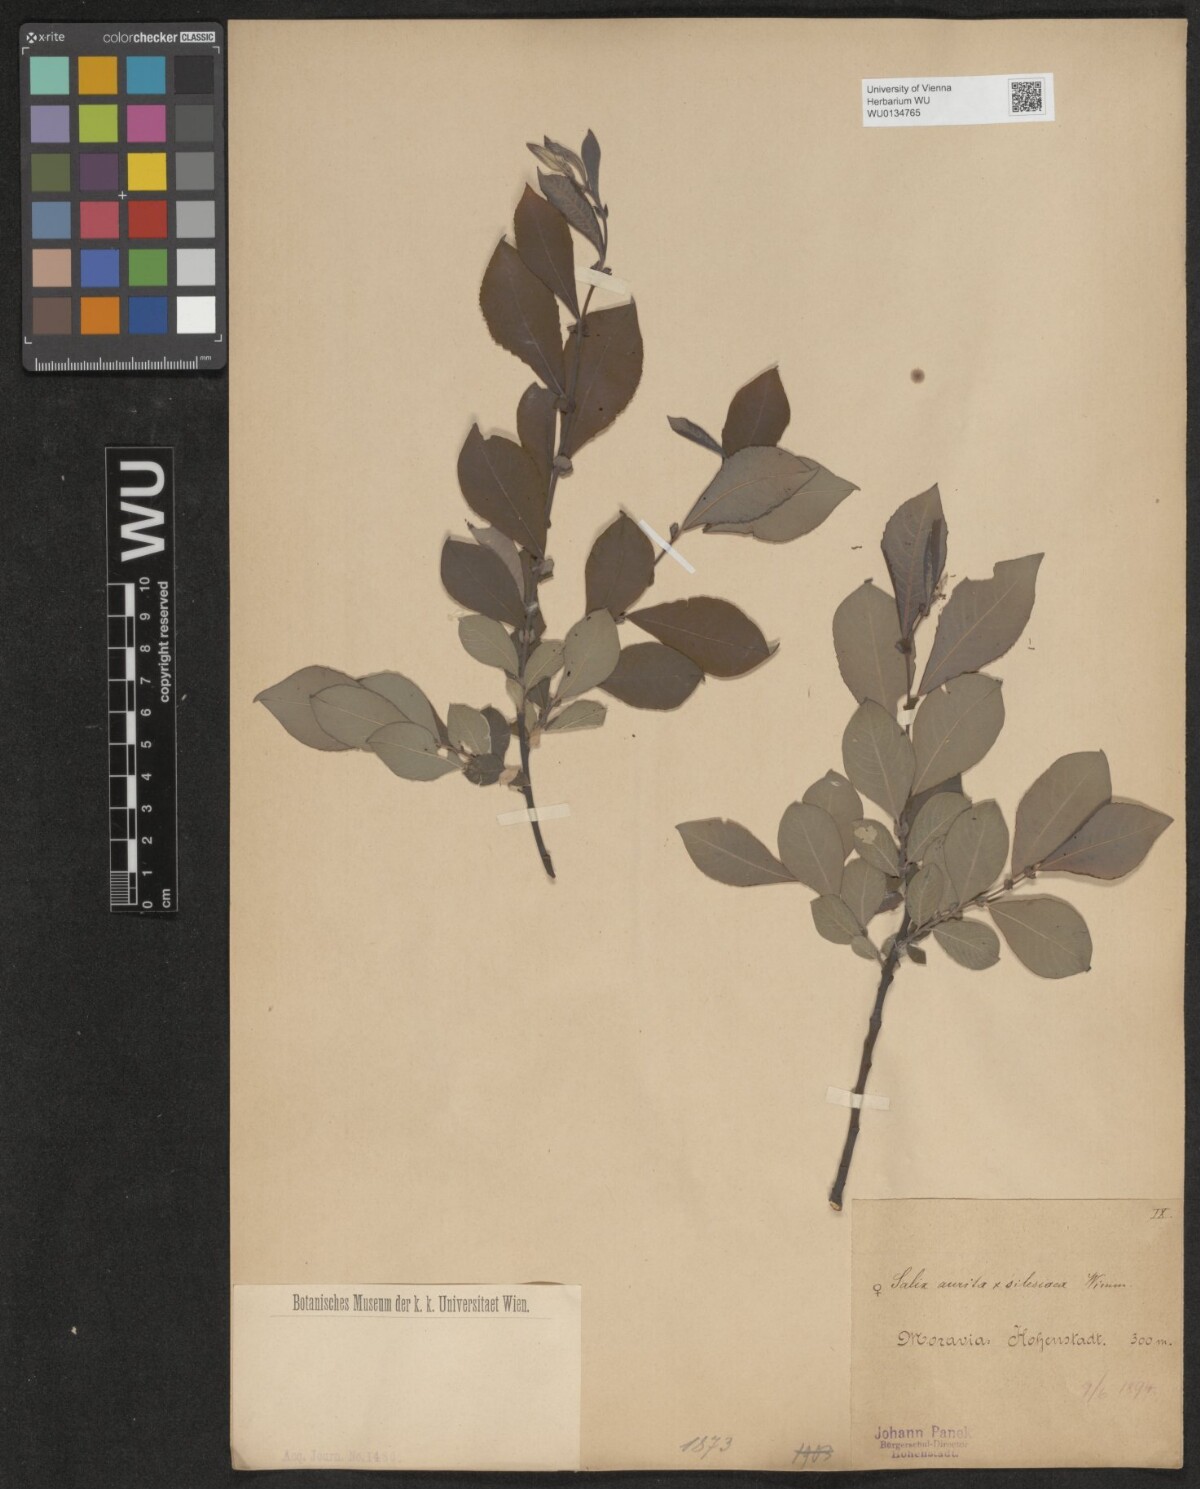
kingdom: Plantae
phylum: Tracheophyta
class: Magnoliopsida
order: Malpighiales
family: Salicaceae
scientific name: Salicaceae
